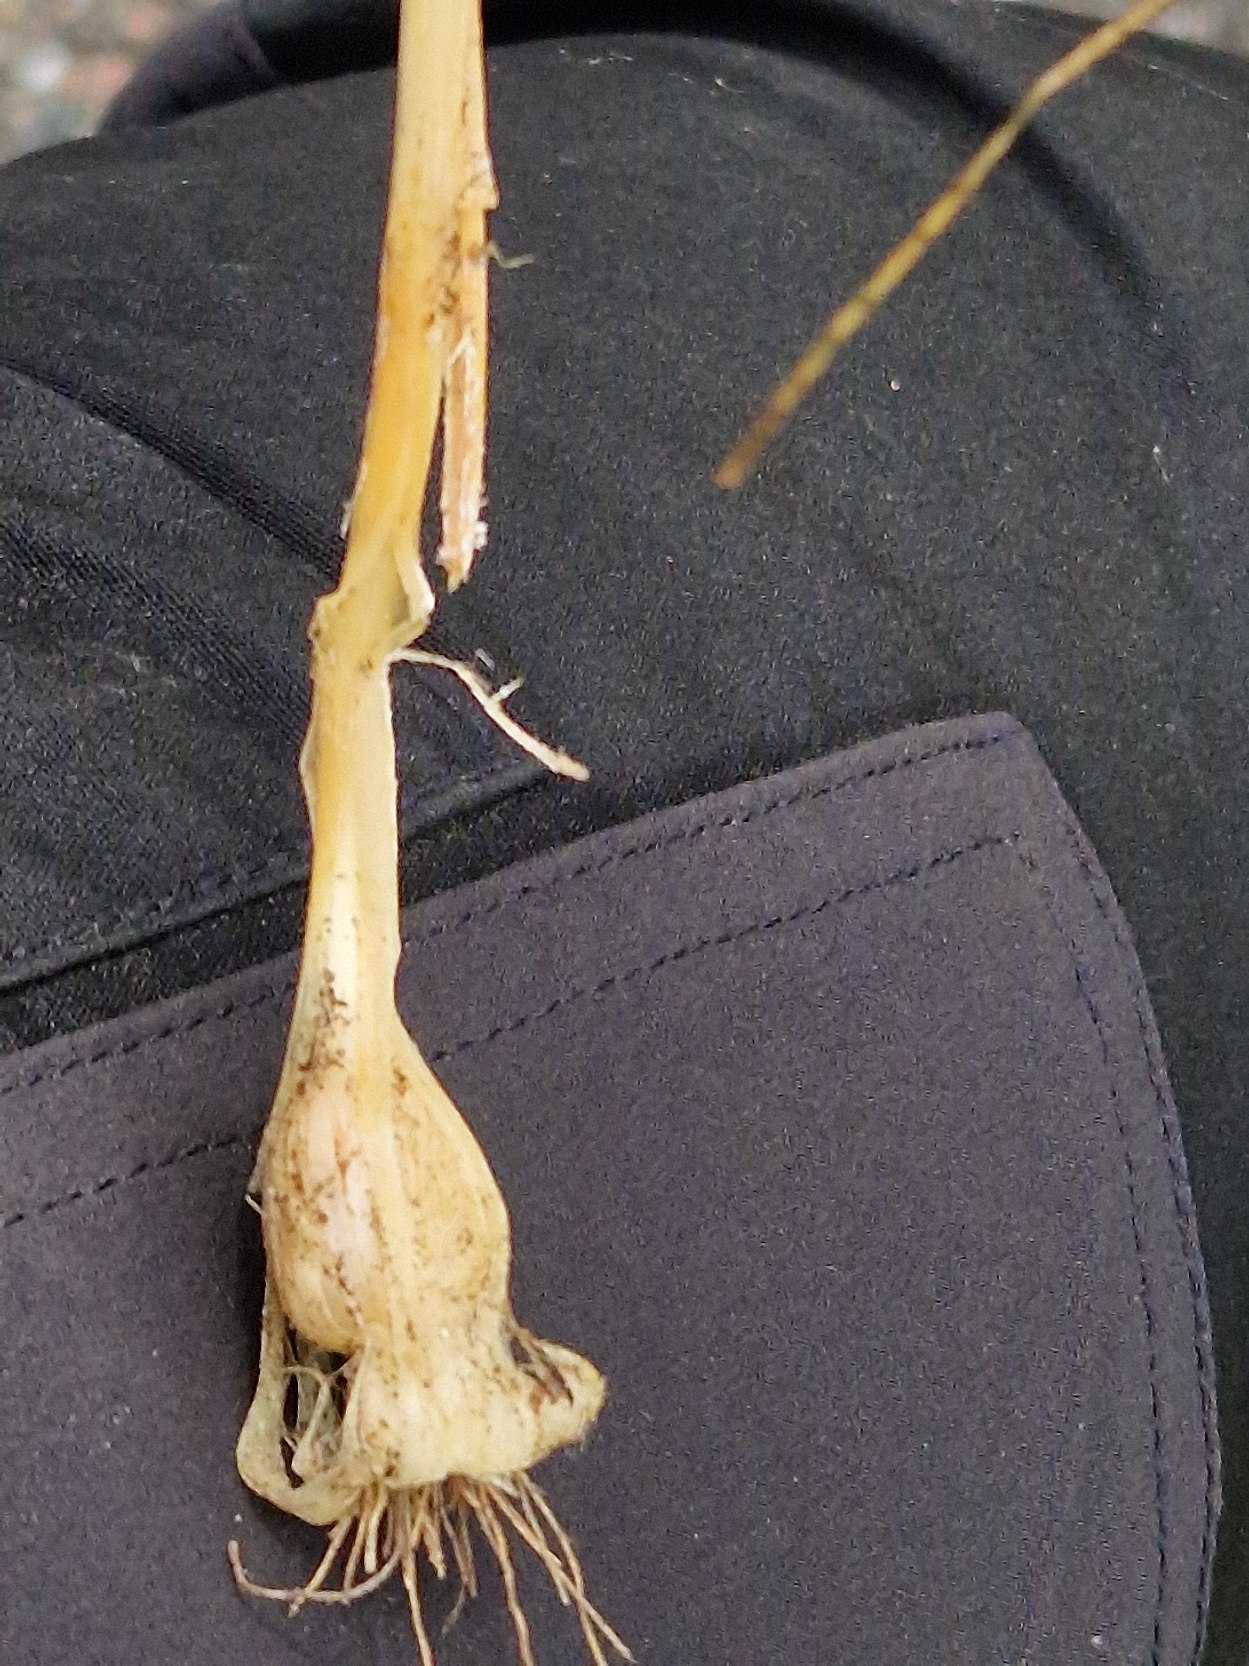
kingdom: Plantae
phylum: Tracheophyta
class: Liliopsida
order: Asparagales
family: Amaryllidaceae
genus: Allium
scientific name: Allium vineale
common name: Sand-løg
